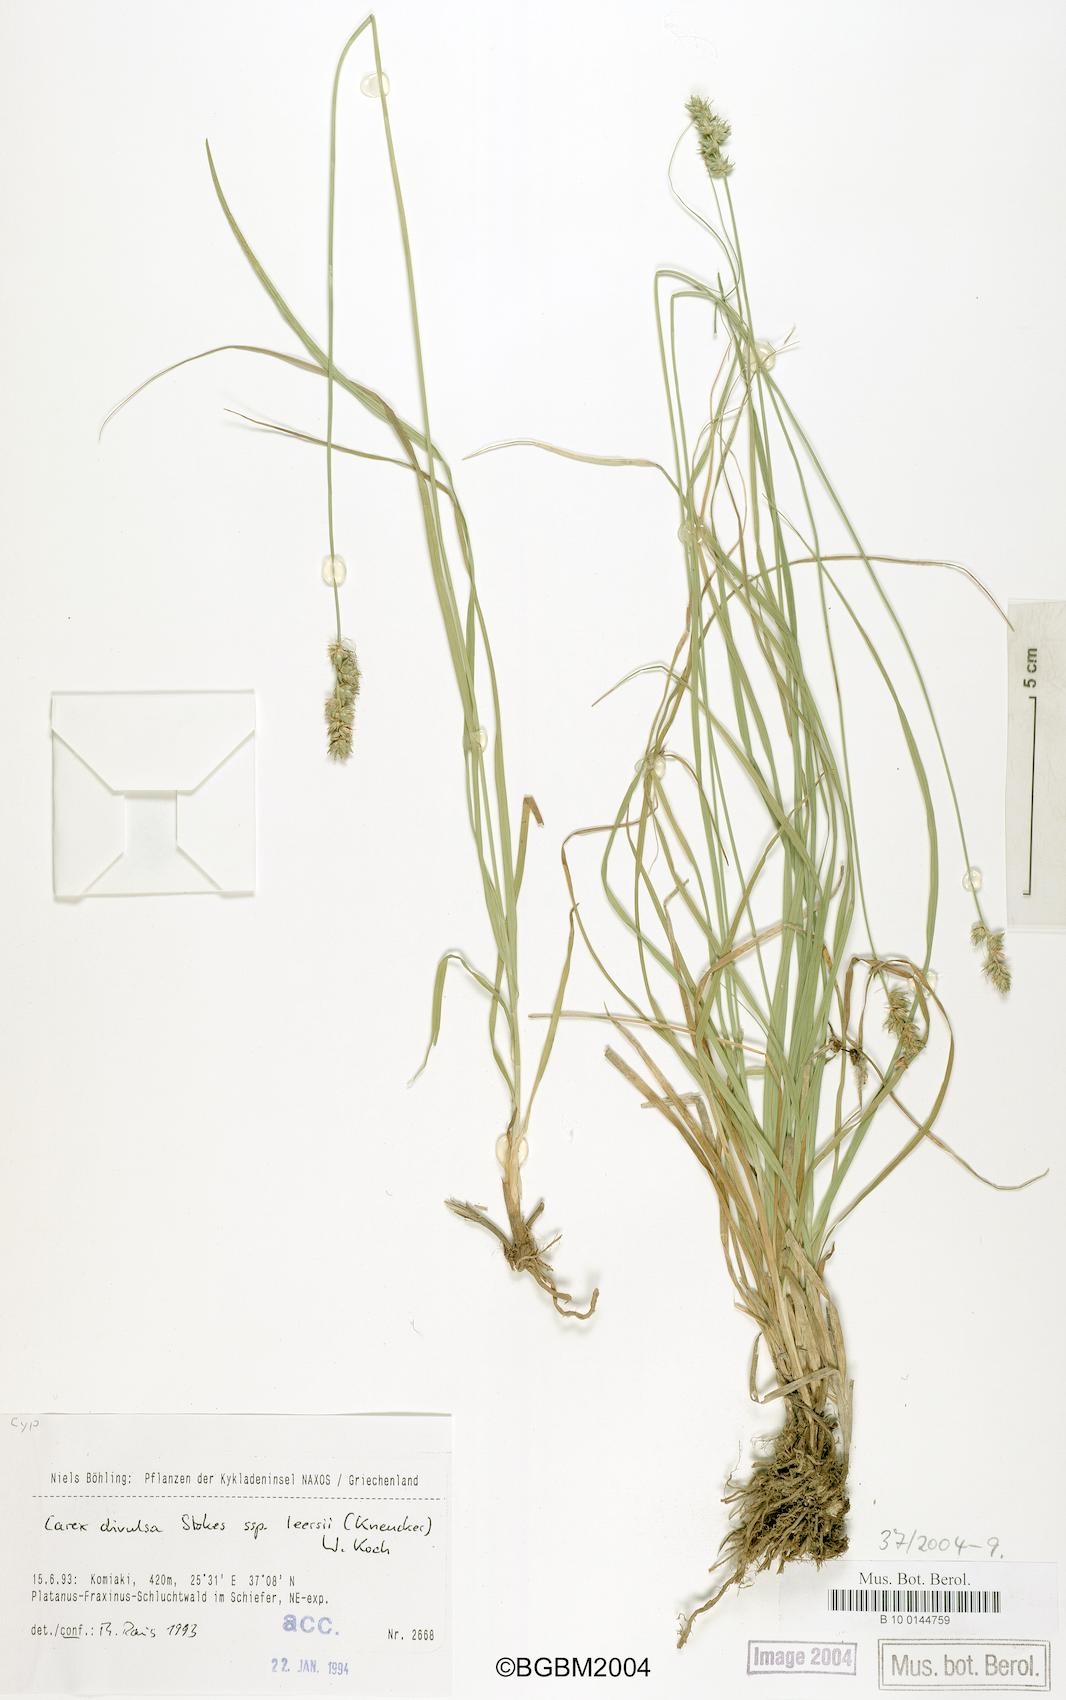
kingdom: Plantae
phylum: Tracheophyta
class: Liliopsida
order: Poales
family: Cyperaceae
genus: Carex
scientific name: Carex leersii
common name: Leers' sedge
